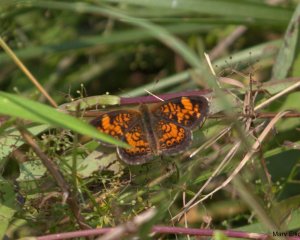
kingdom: Animalia
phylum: Arthropoda
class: Insecta
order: Lepidoptera
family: Nymphalidae
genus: Phyciodes
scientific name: Phyciodes
